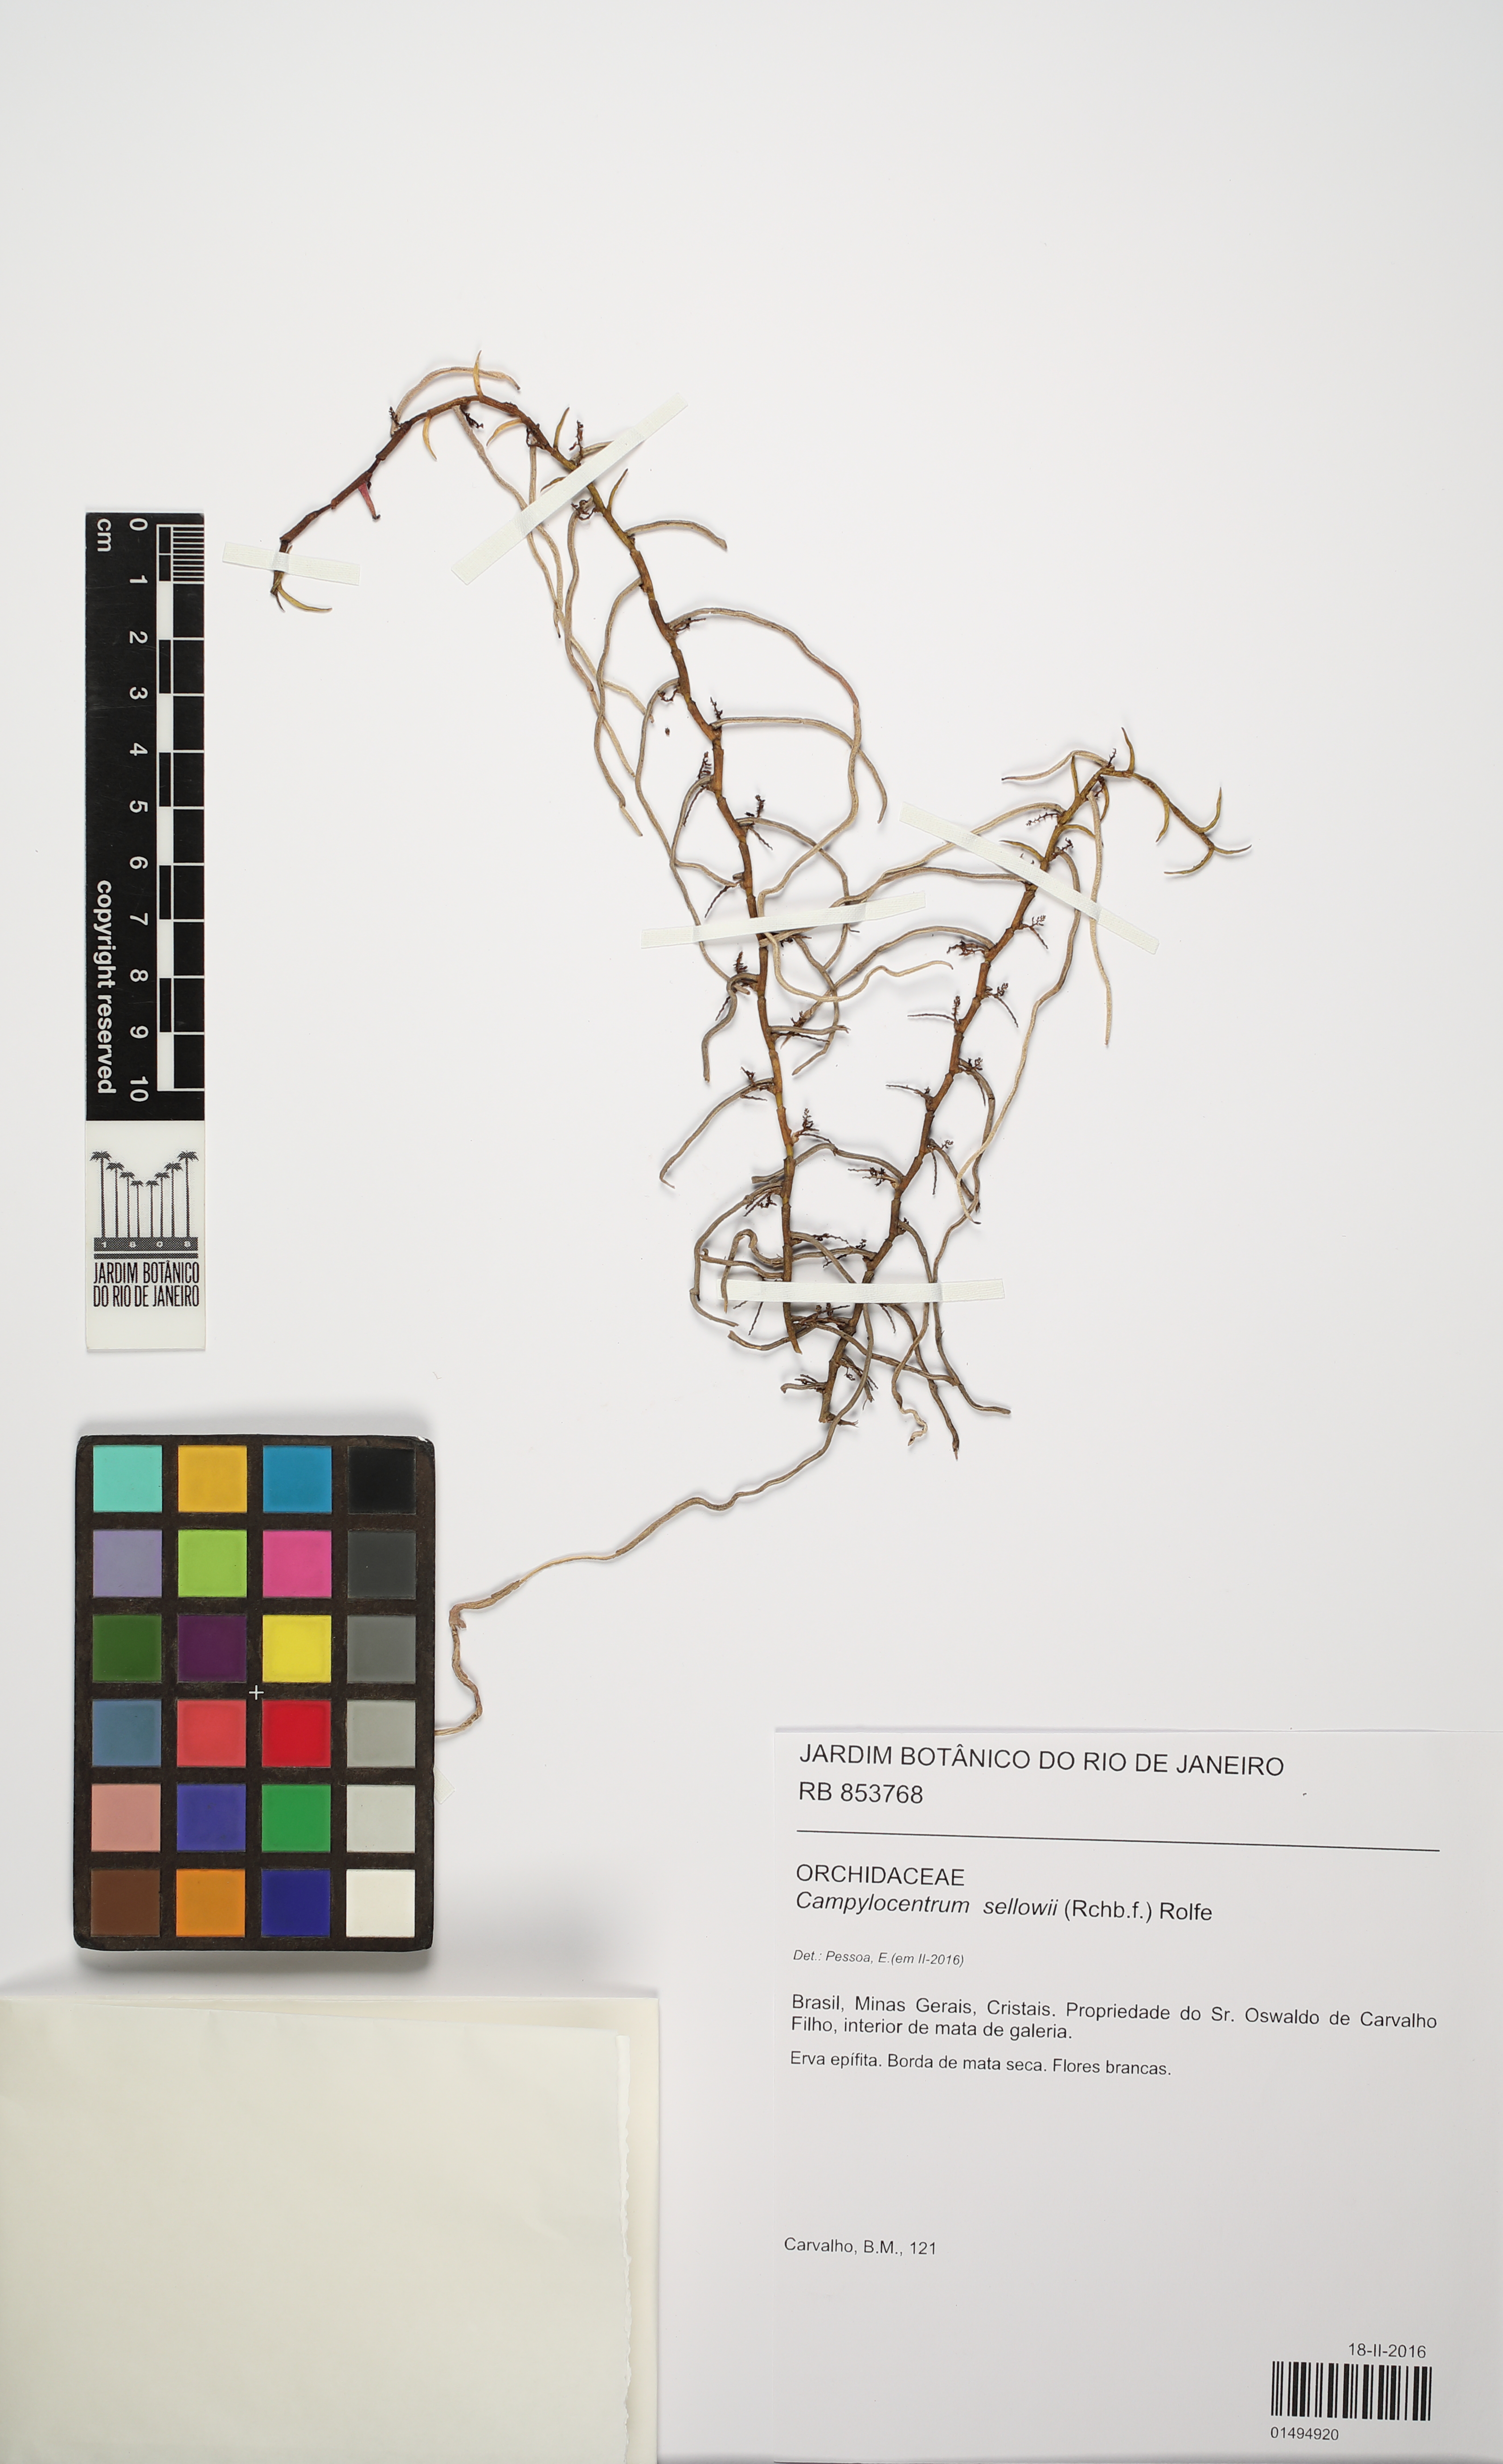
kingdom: Plantae
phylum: Tracheophyta
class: Liliopsida
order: Asparagales
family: Orchidaceae
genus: Campylocentrum
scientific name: Campylocentrum sellowii
